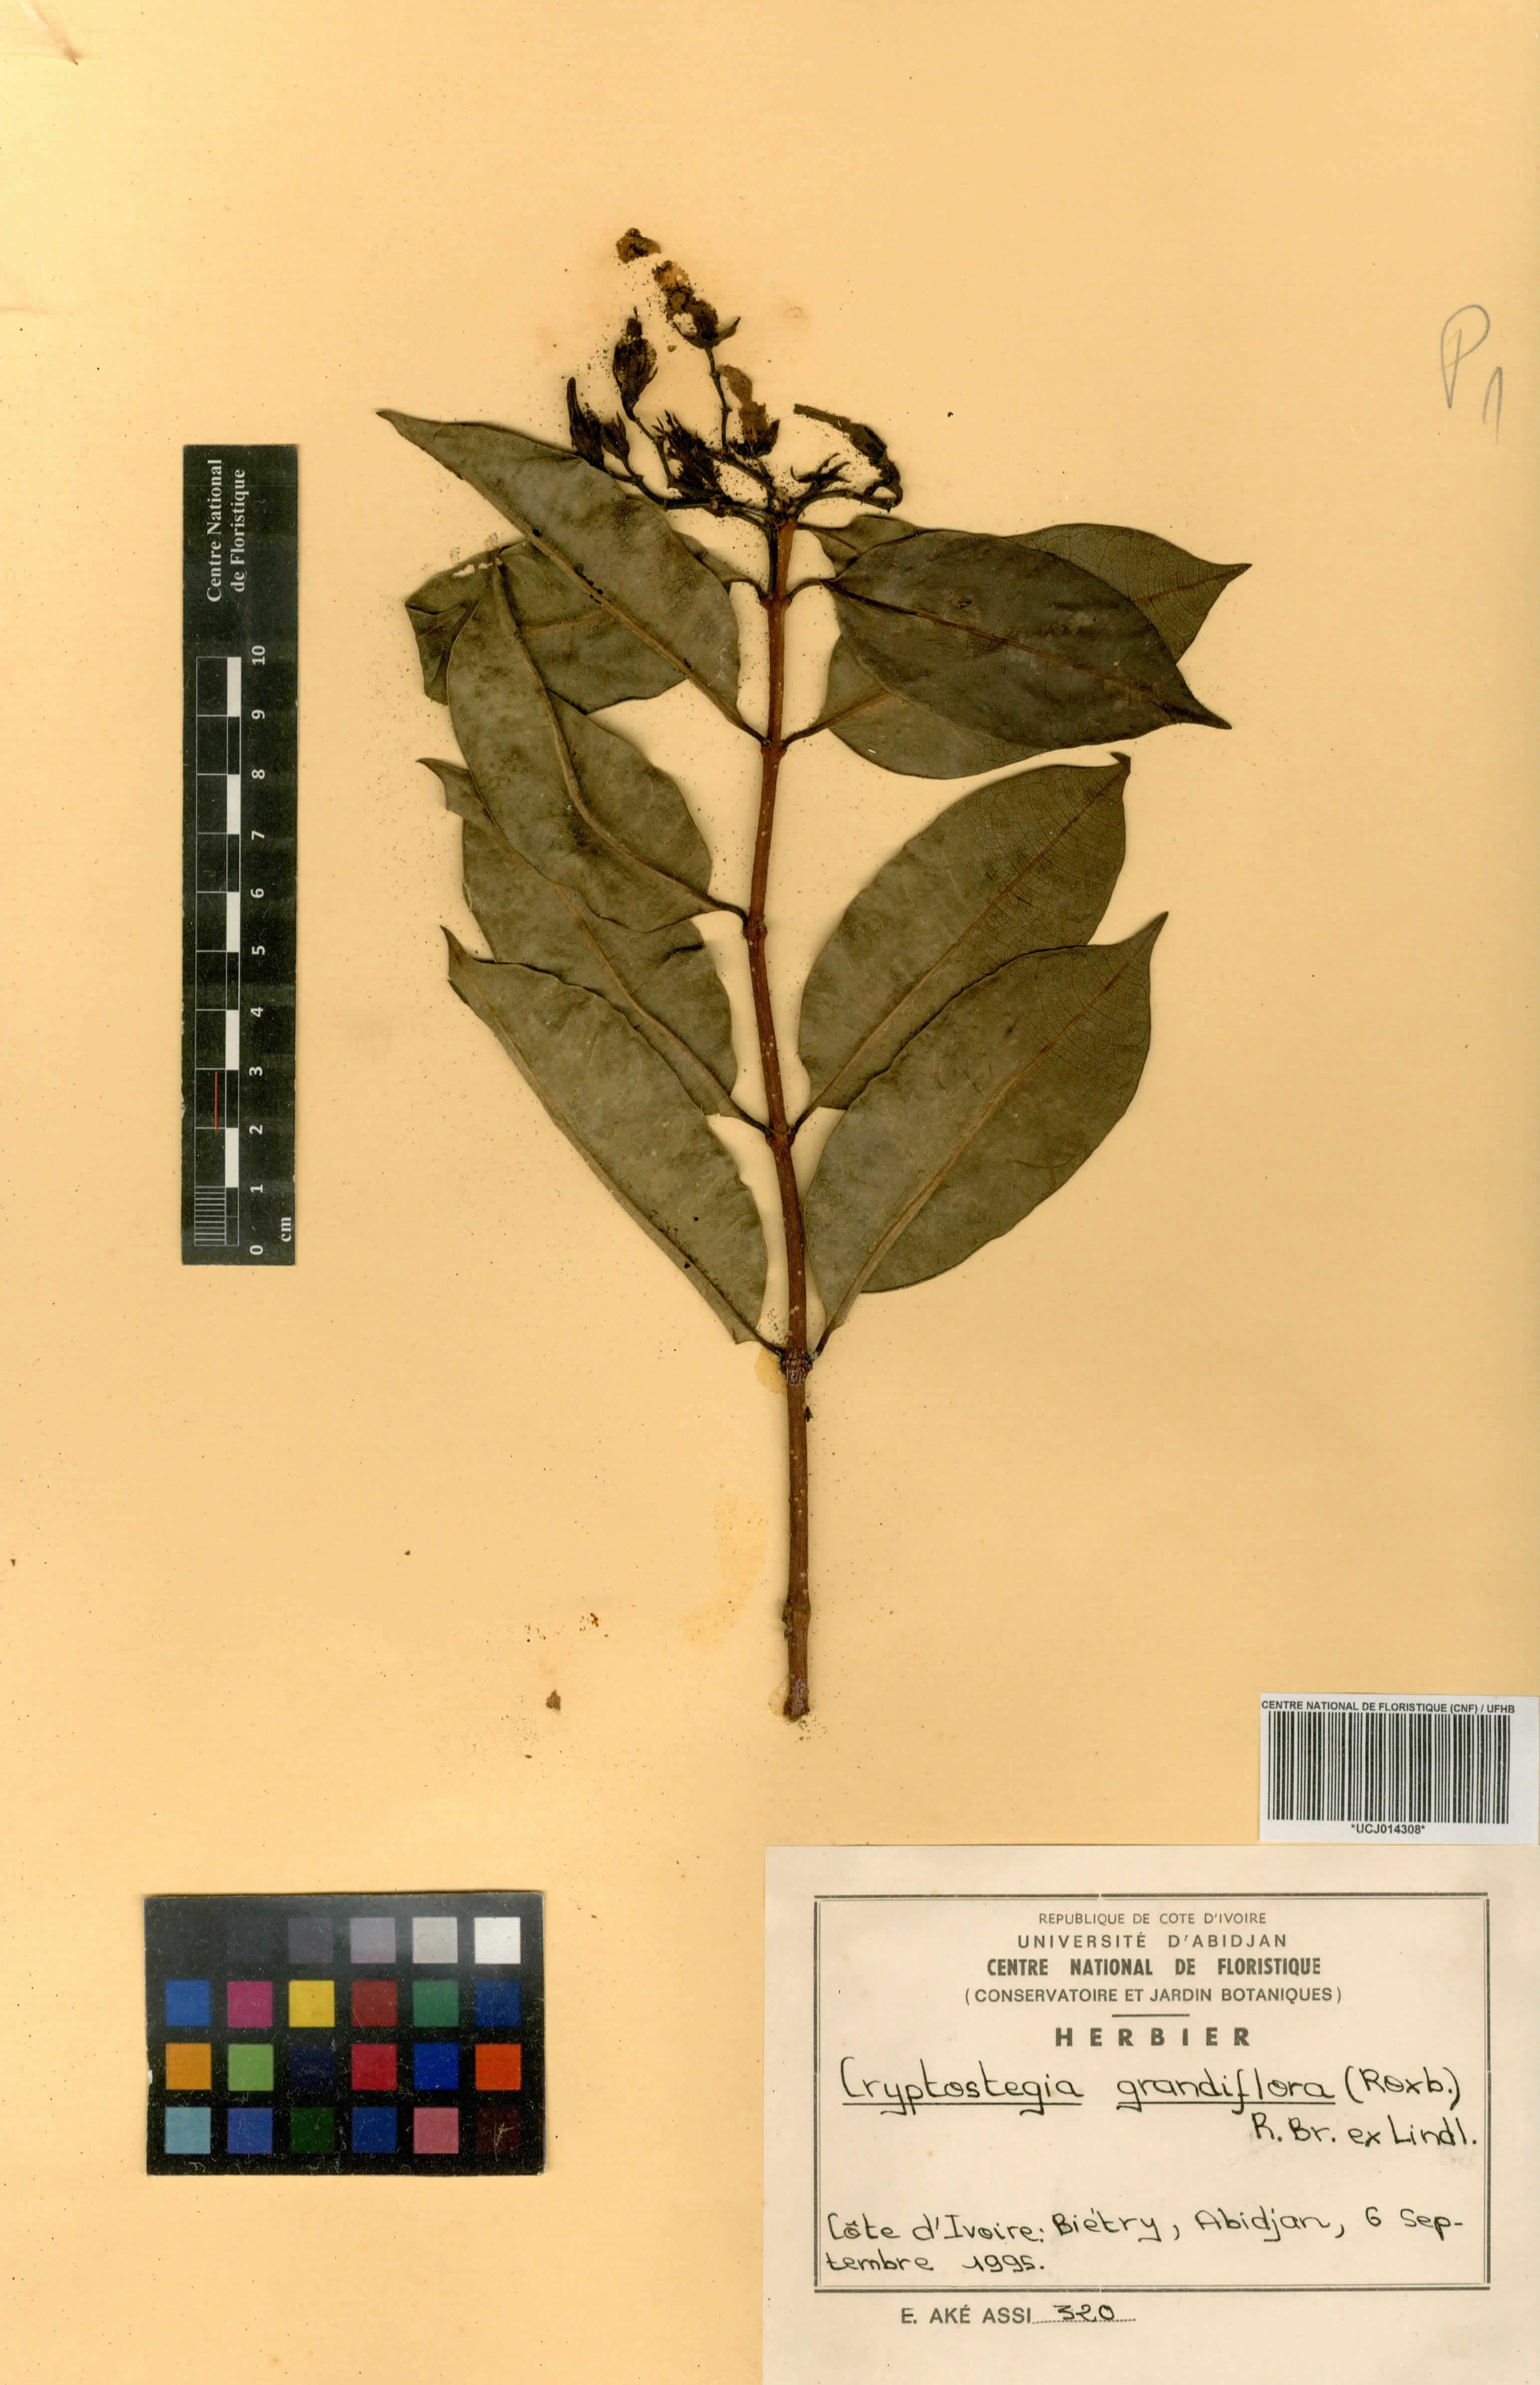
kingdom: Plantae
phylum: Tracheophyta
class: Magnoliopsida
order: Gentianales
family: Apocynaceae
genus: Cryptostegia
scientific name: Cryptostegia grandiflora
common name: Palay rubbervine
